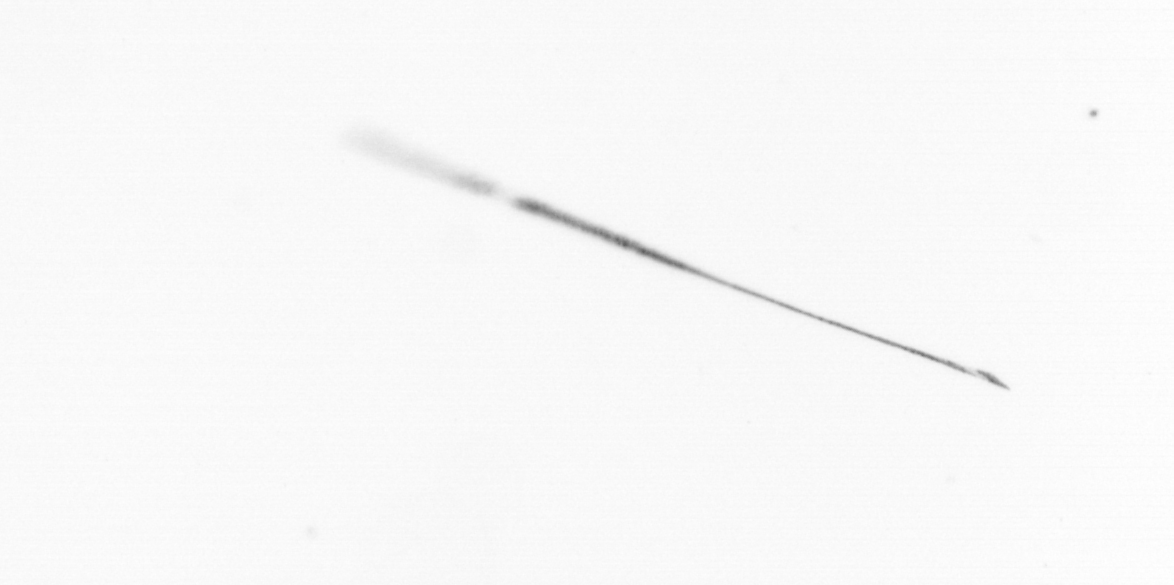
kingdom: Chromista
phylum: Ochrophyta
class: Bacillariophyceae
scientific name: Bacillariophyceae
